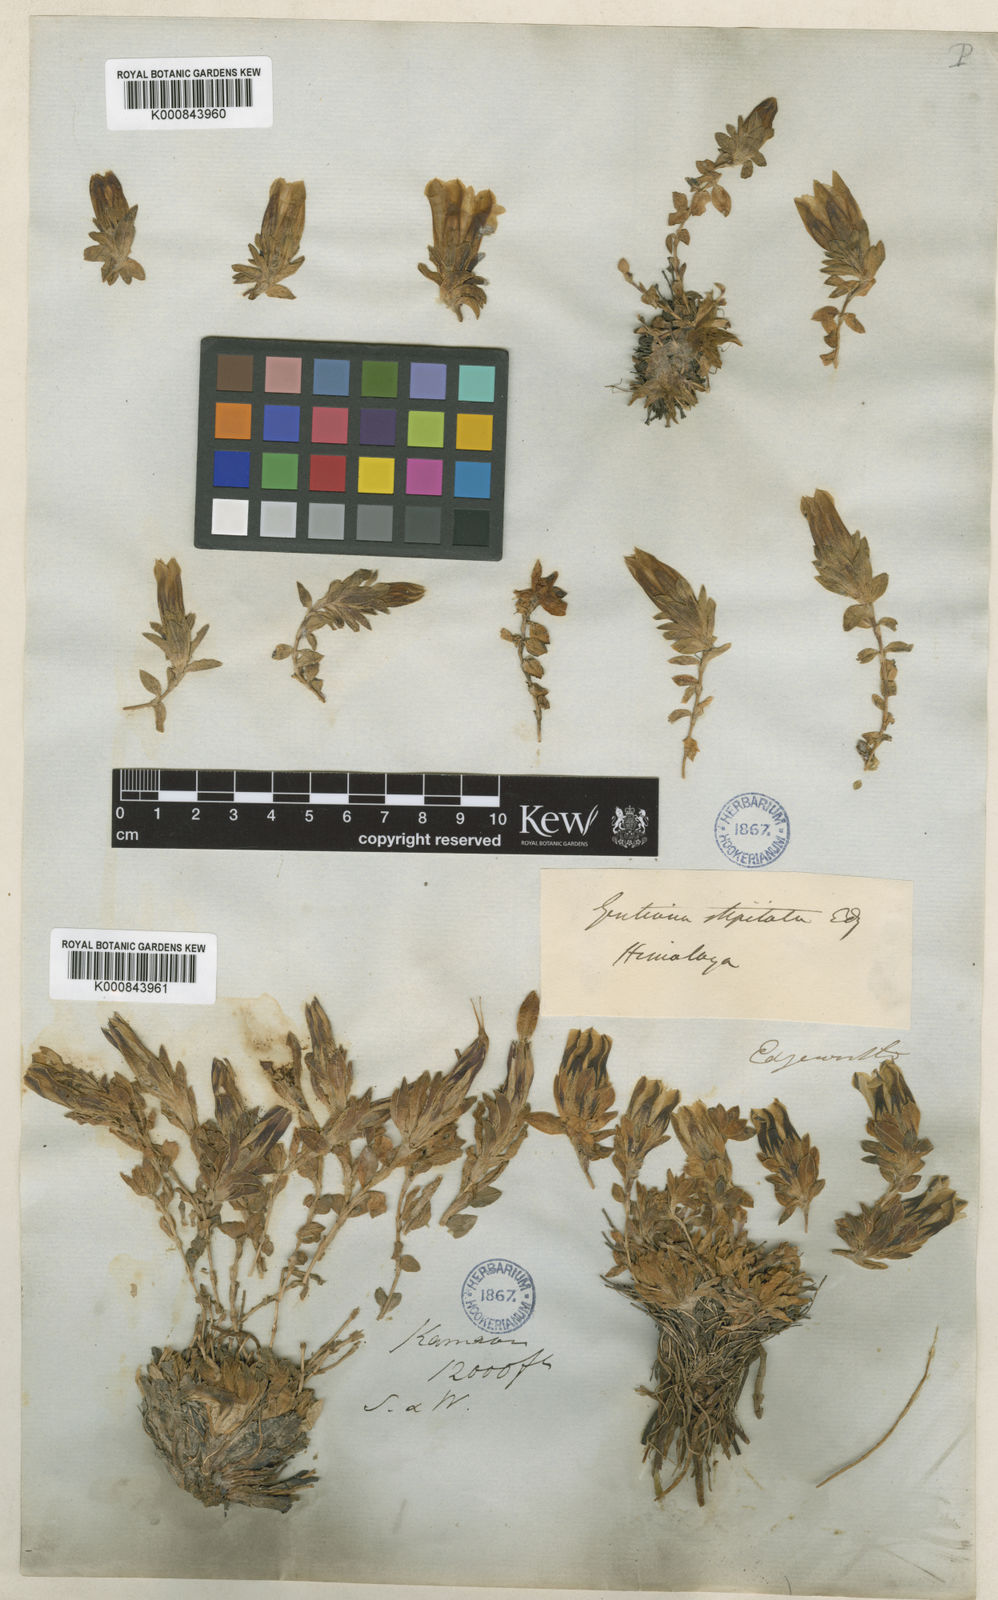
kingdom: Plantae
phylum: Tracheophyta
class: Magnoliopsida
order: Gentianales
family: Gentianaceae
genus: Gentiana
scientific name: Gentiana stipitata
